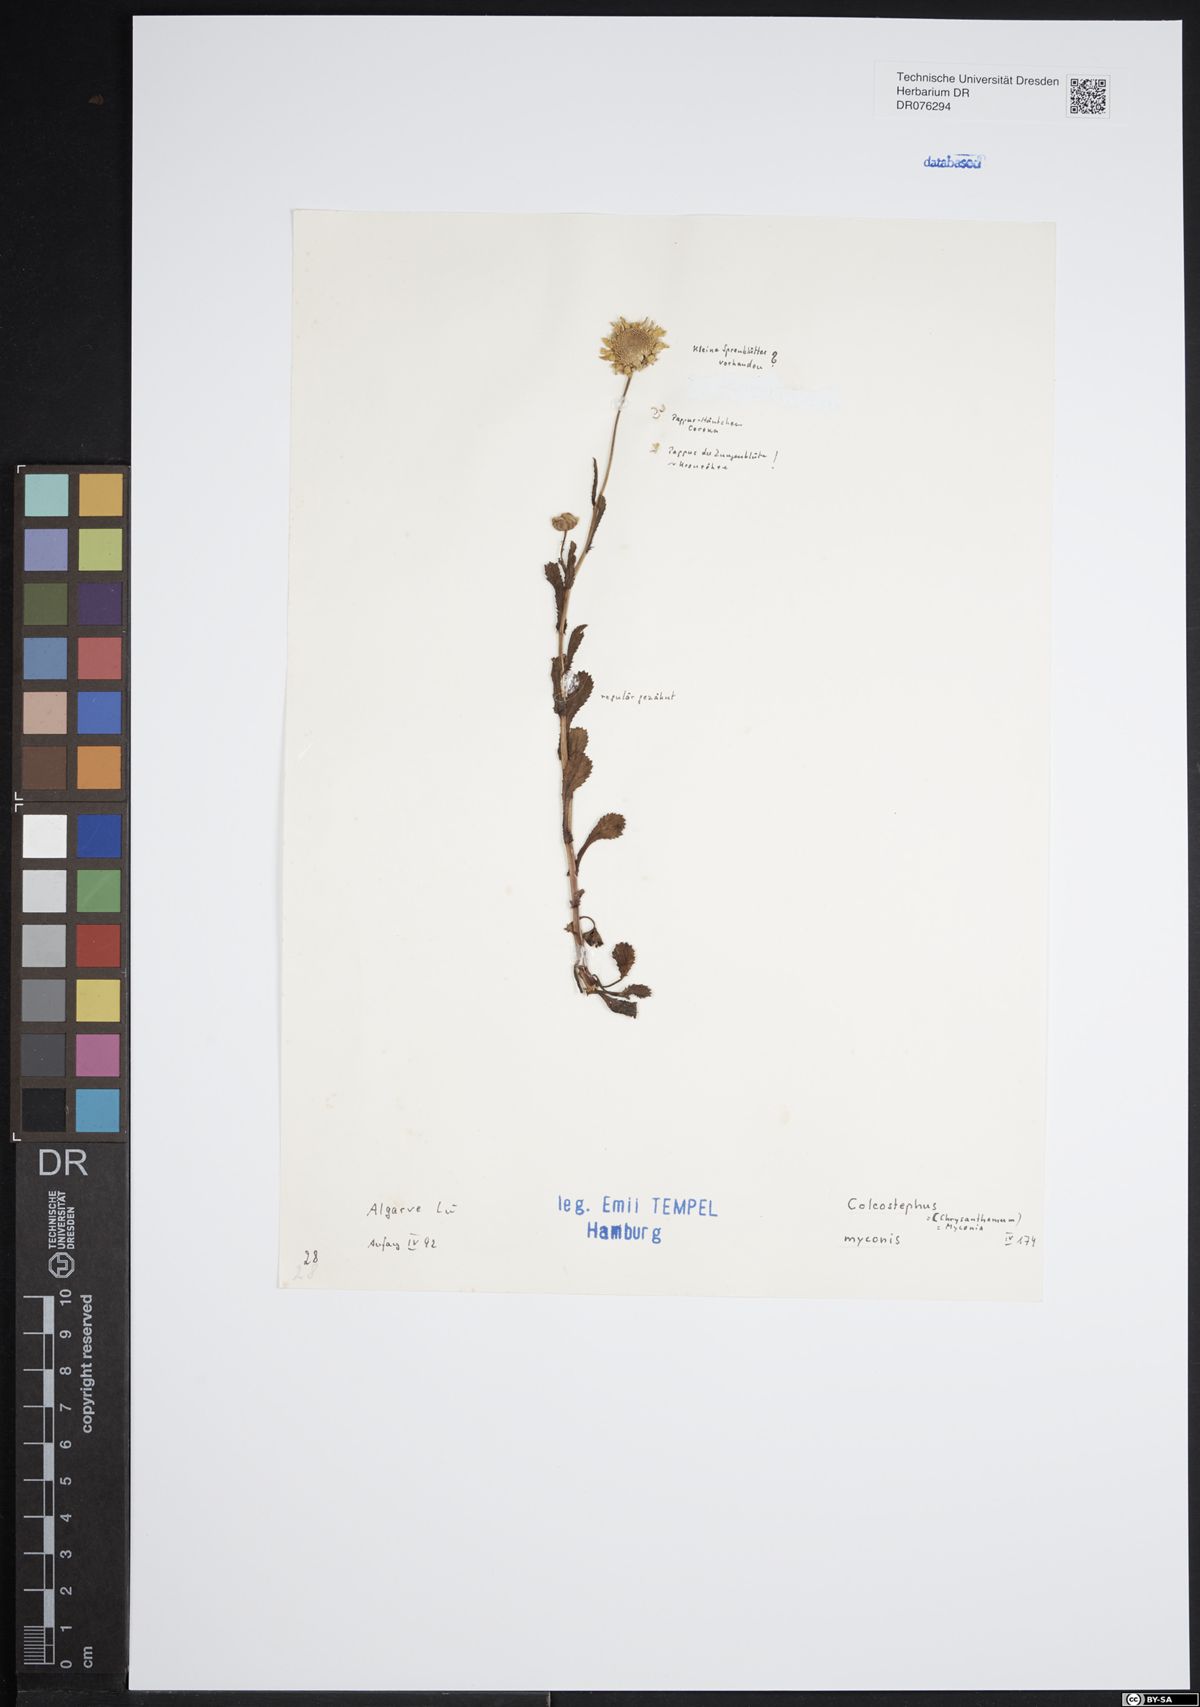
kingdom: Plantae
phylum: Tracheophyta
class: Magnoliopsida
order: Asterales
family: Asteraceae
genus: Coleostephus
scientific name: Coleostephus myconis
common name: Mediterranean marigold
